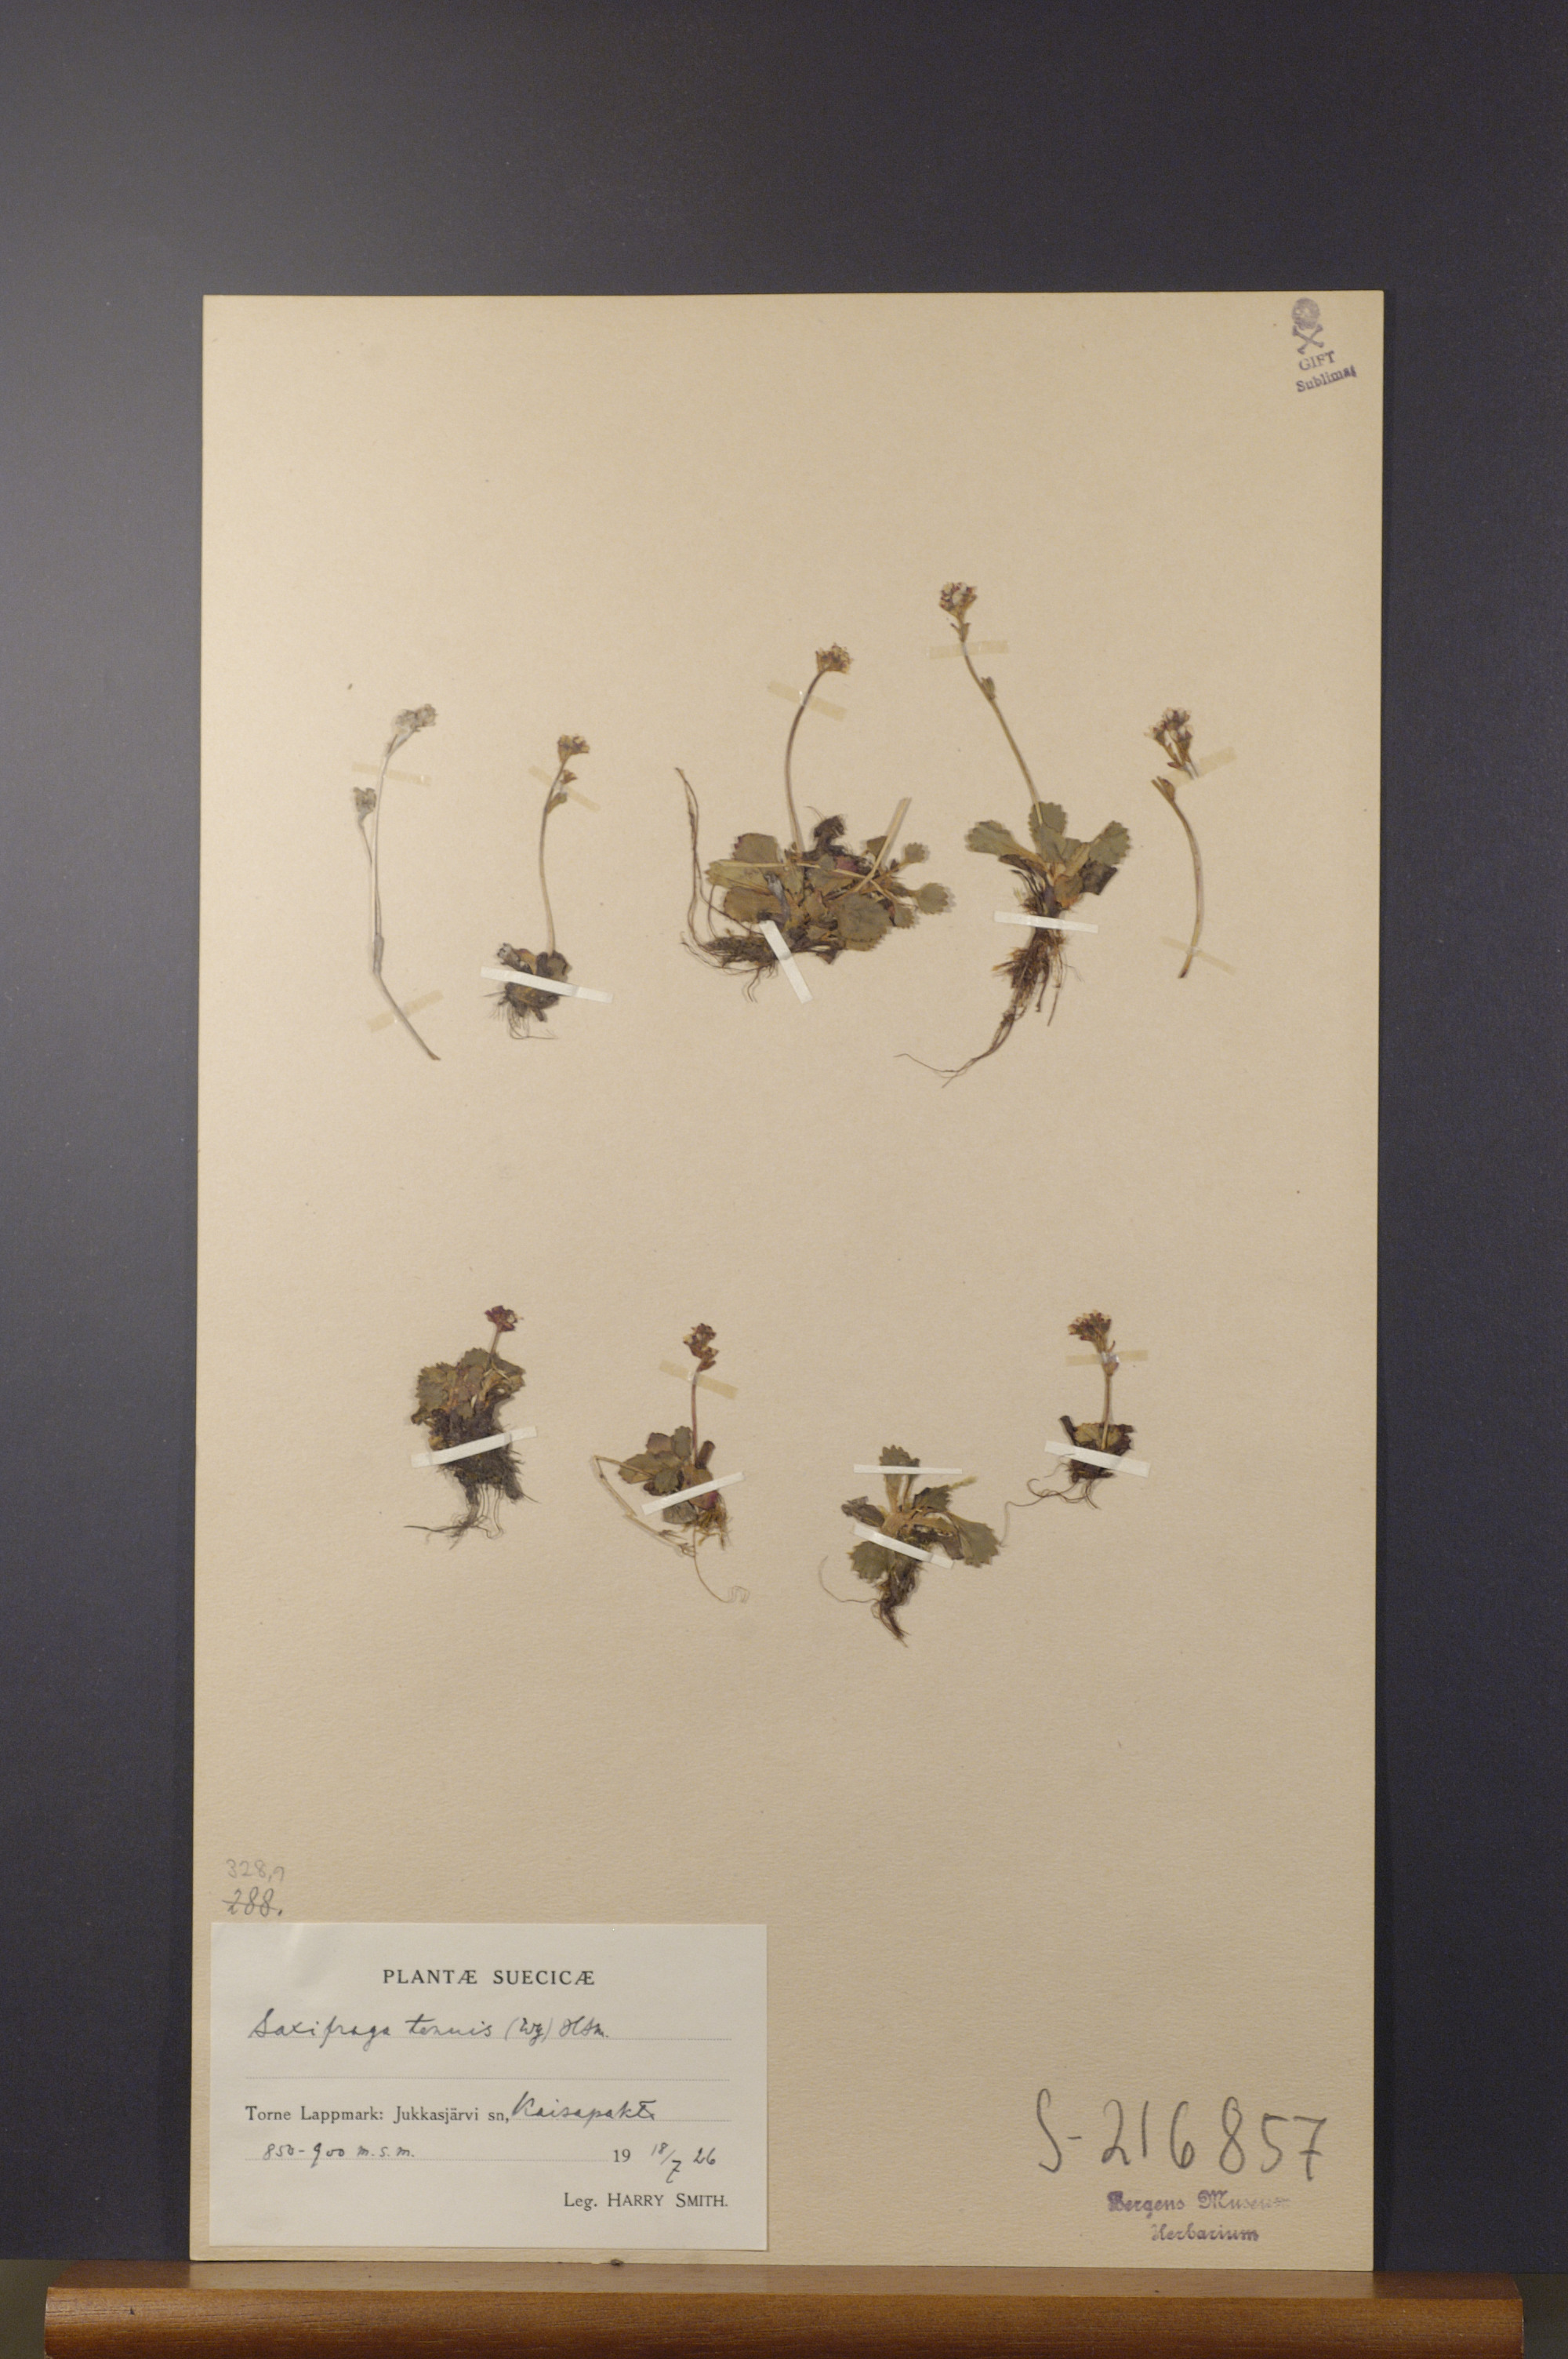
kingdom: Plantae
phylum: Tracheophyta
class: Magnoliopsida
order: Saxifragales
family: Saxifragaceae
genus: Micranthes
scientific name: Micranthes tenuis
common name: Ottertail pass saxifrage
